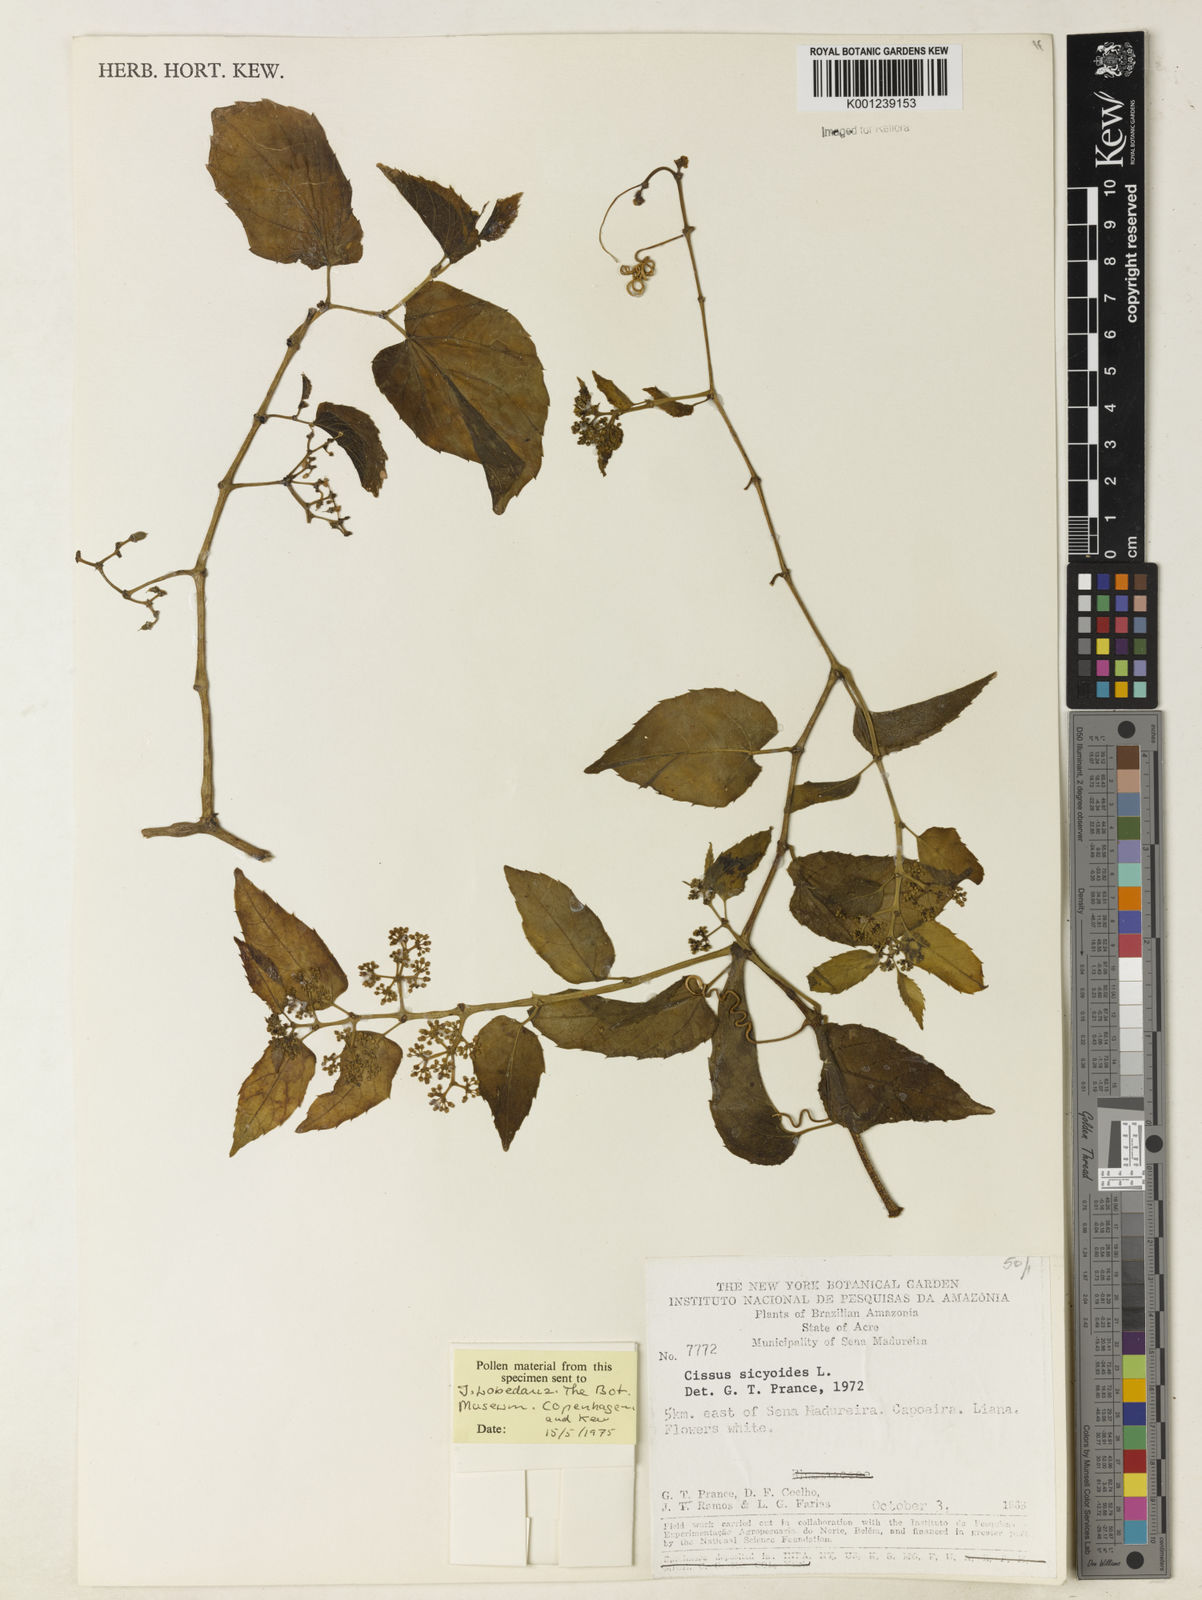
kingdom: Plantae
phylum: Tracheophyta
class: Magnoliopsida
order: Vitales
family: Vitaceae
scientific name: Vitaceae
